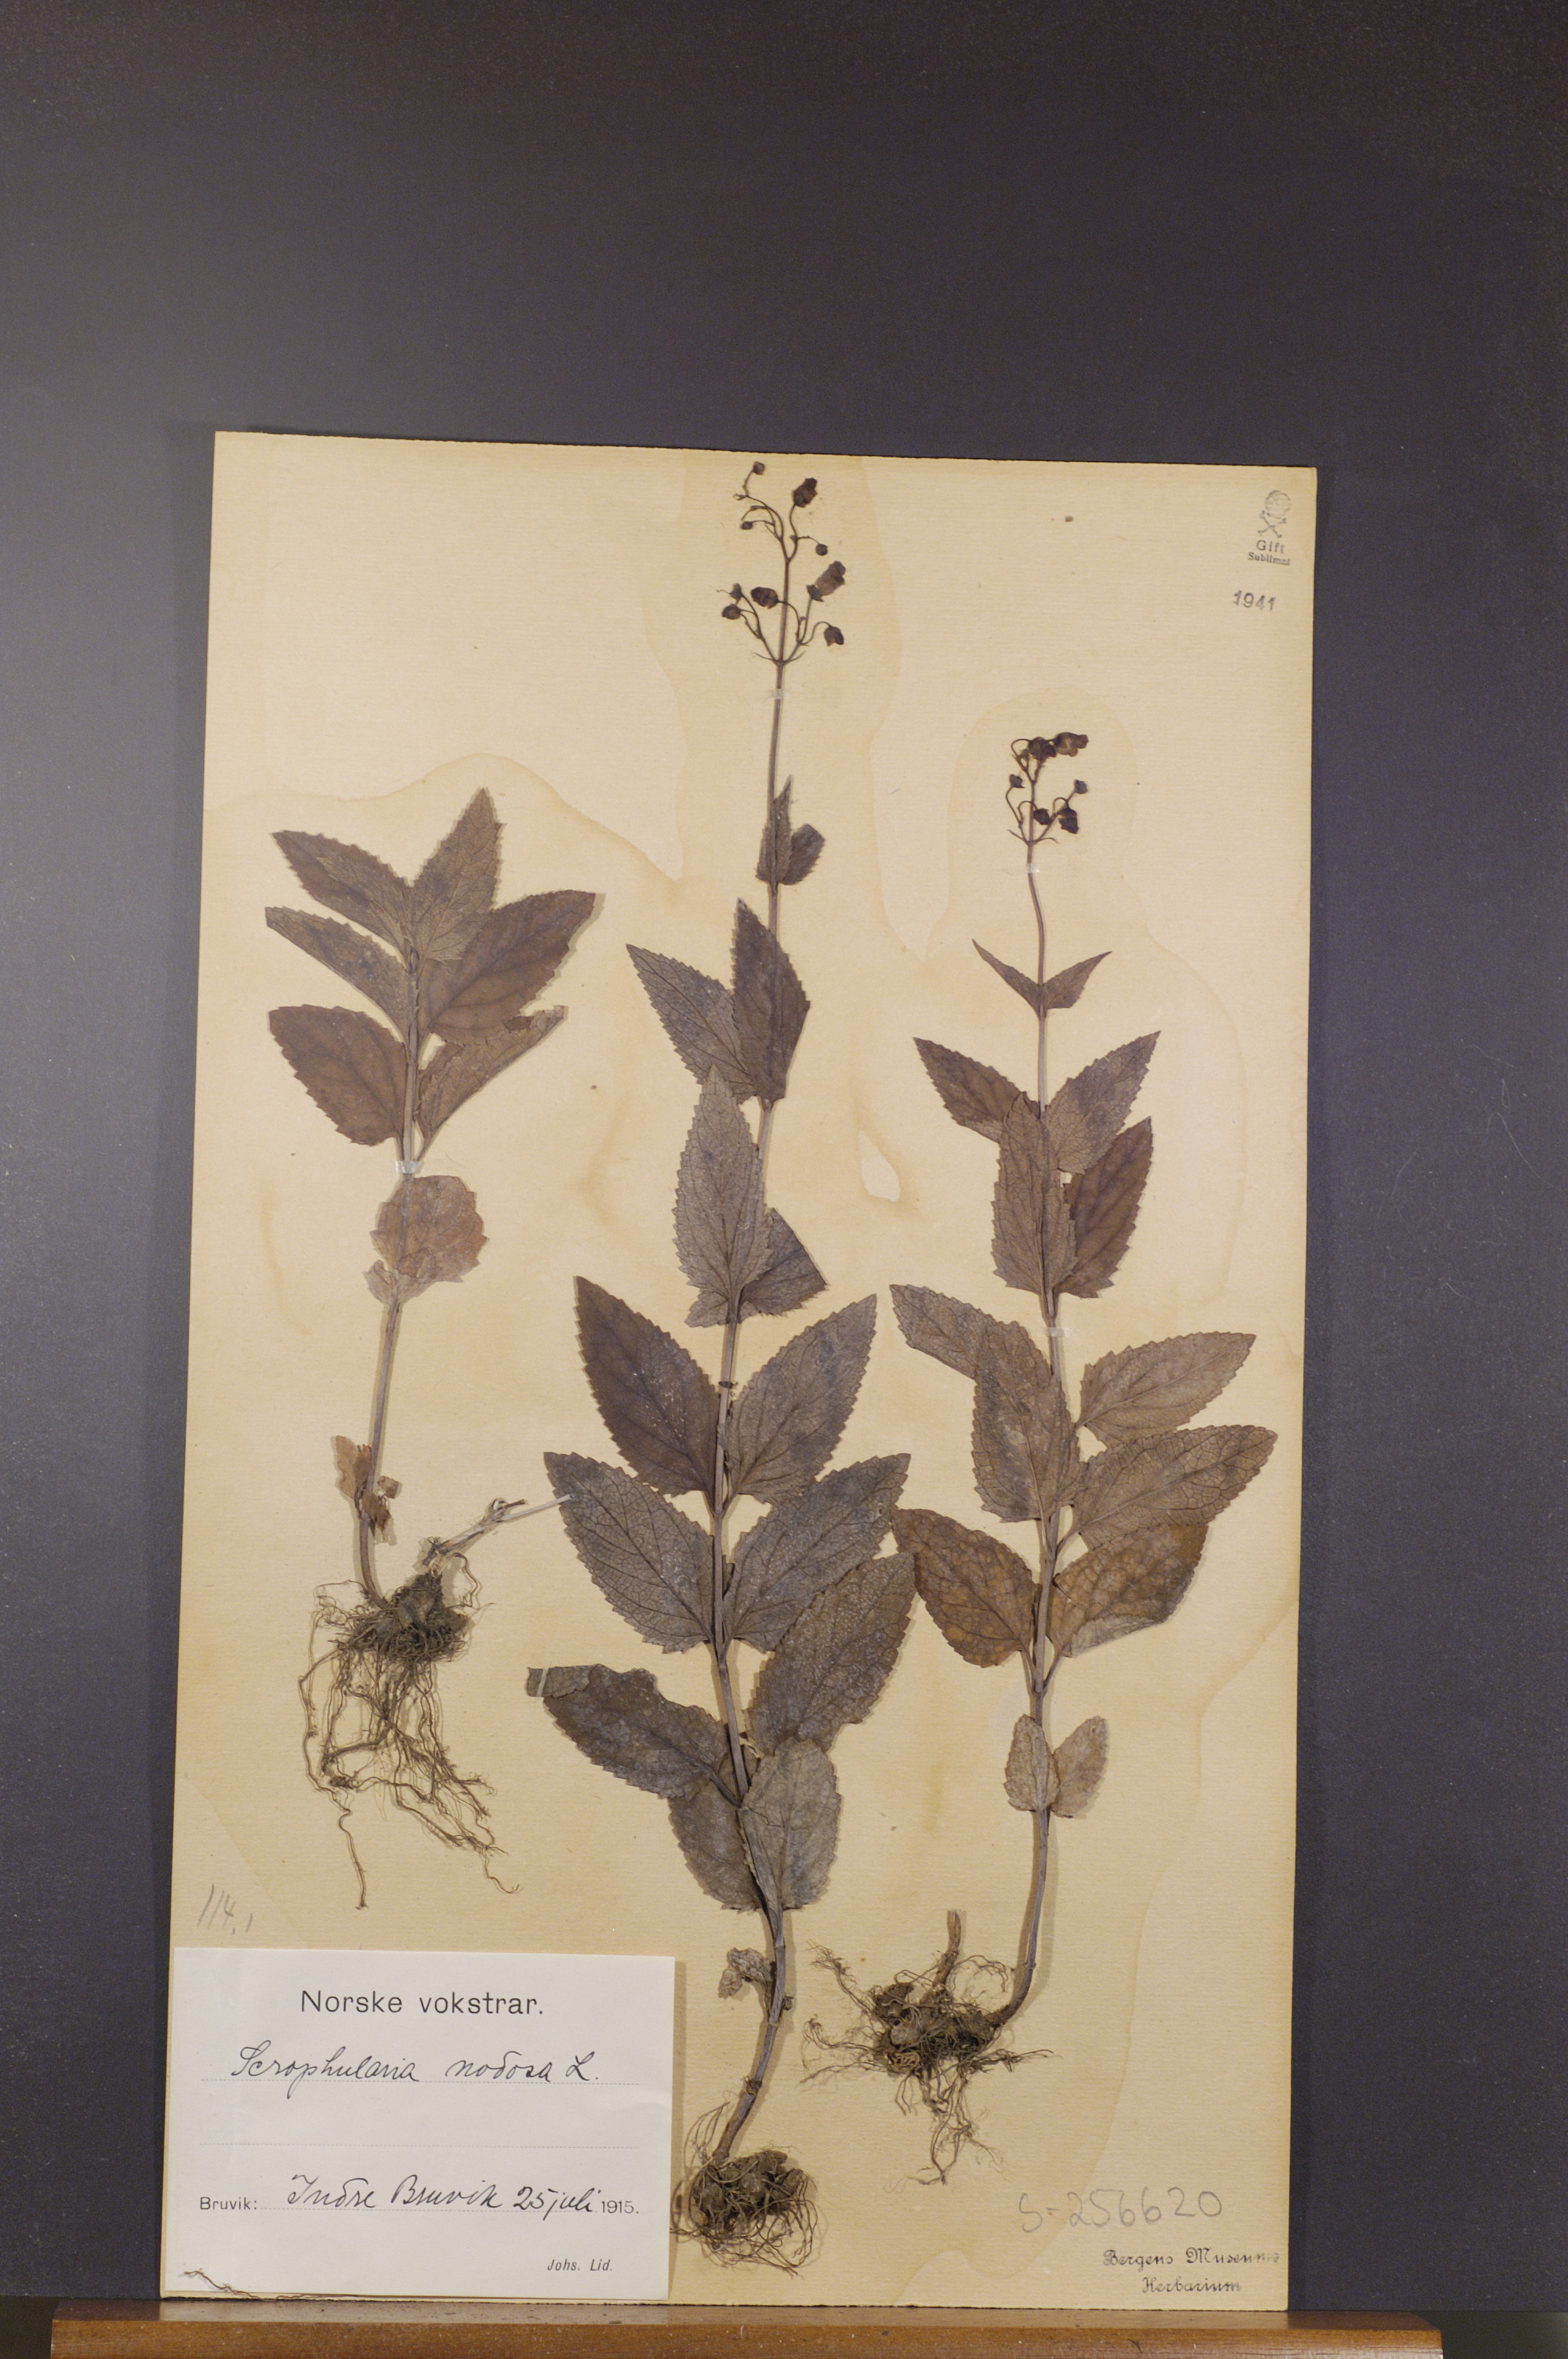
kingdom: Plantae
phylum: Tracheophyta
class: Magnoliopsida
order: Lamiales
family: Scrophulariaceae
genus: Scrophularia
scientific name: Scrophularia nodosa
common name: Common figwort
